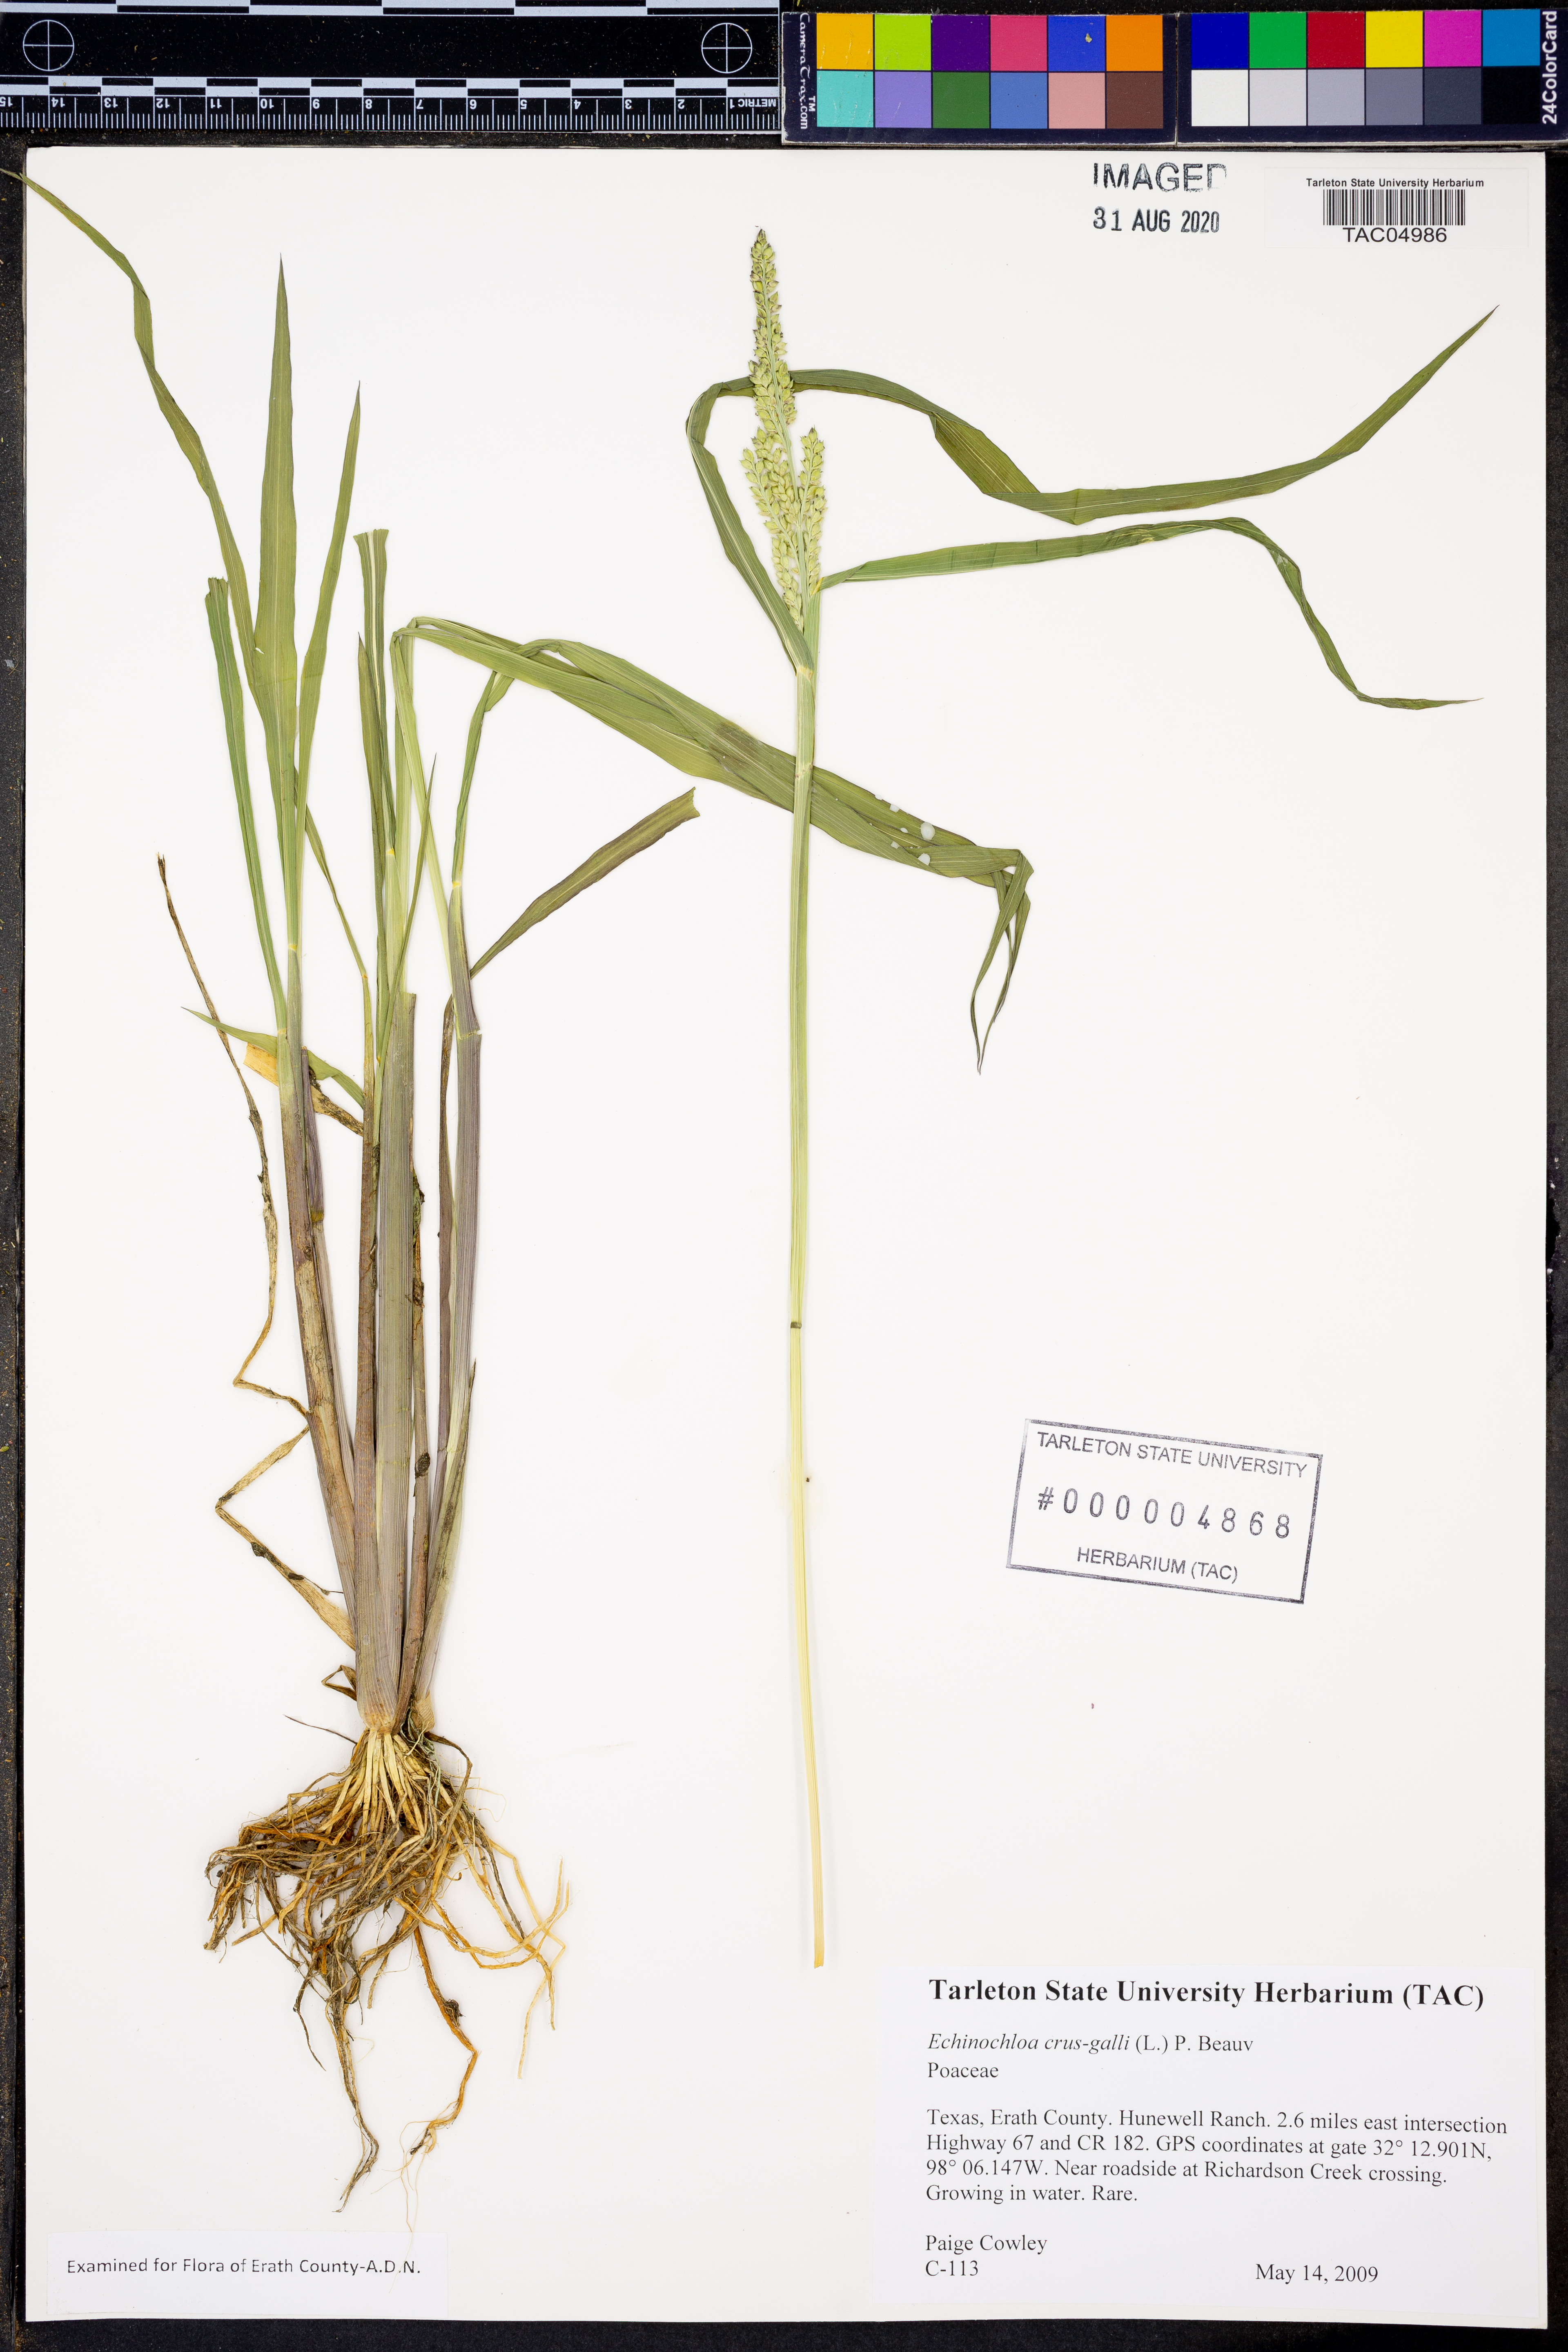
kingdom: Plantae
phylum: Tracheophyta
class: Liliopsida
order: Poales
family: Poaceae
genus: Echinochloa
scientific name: Echinochloa crus-galli
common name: Cockspur
